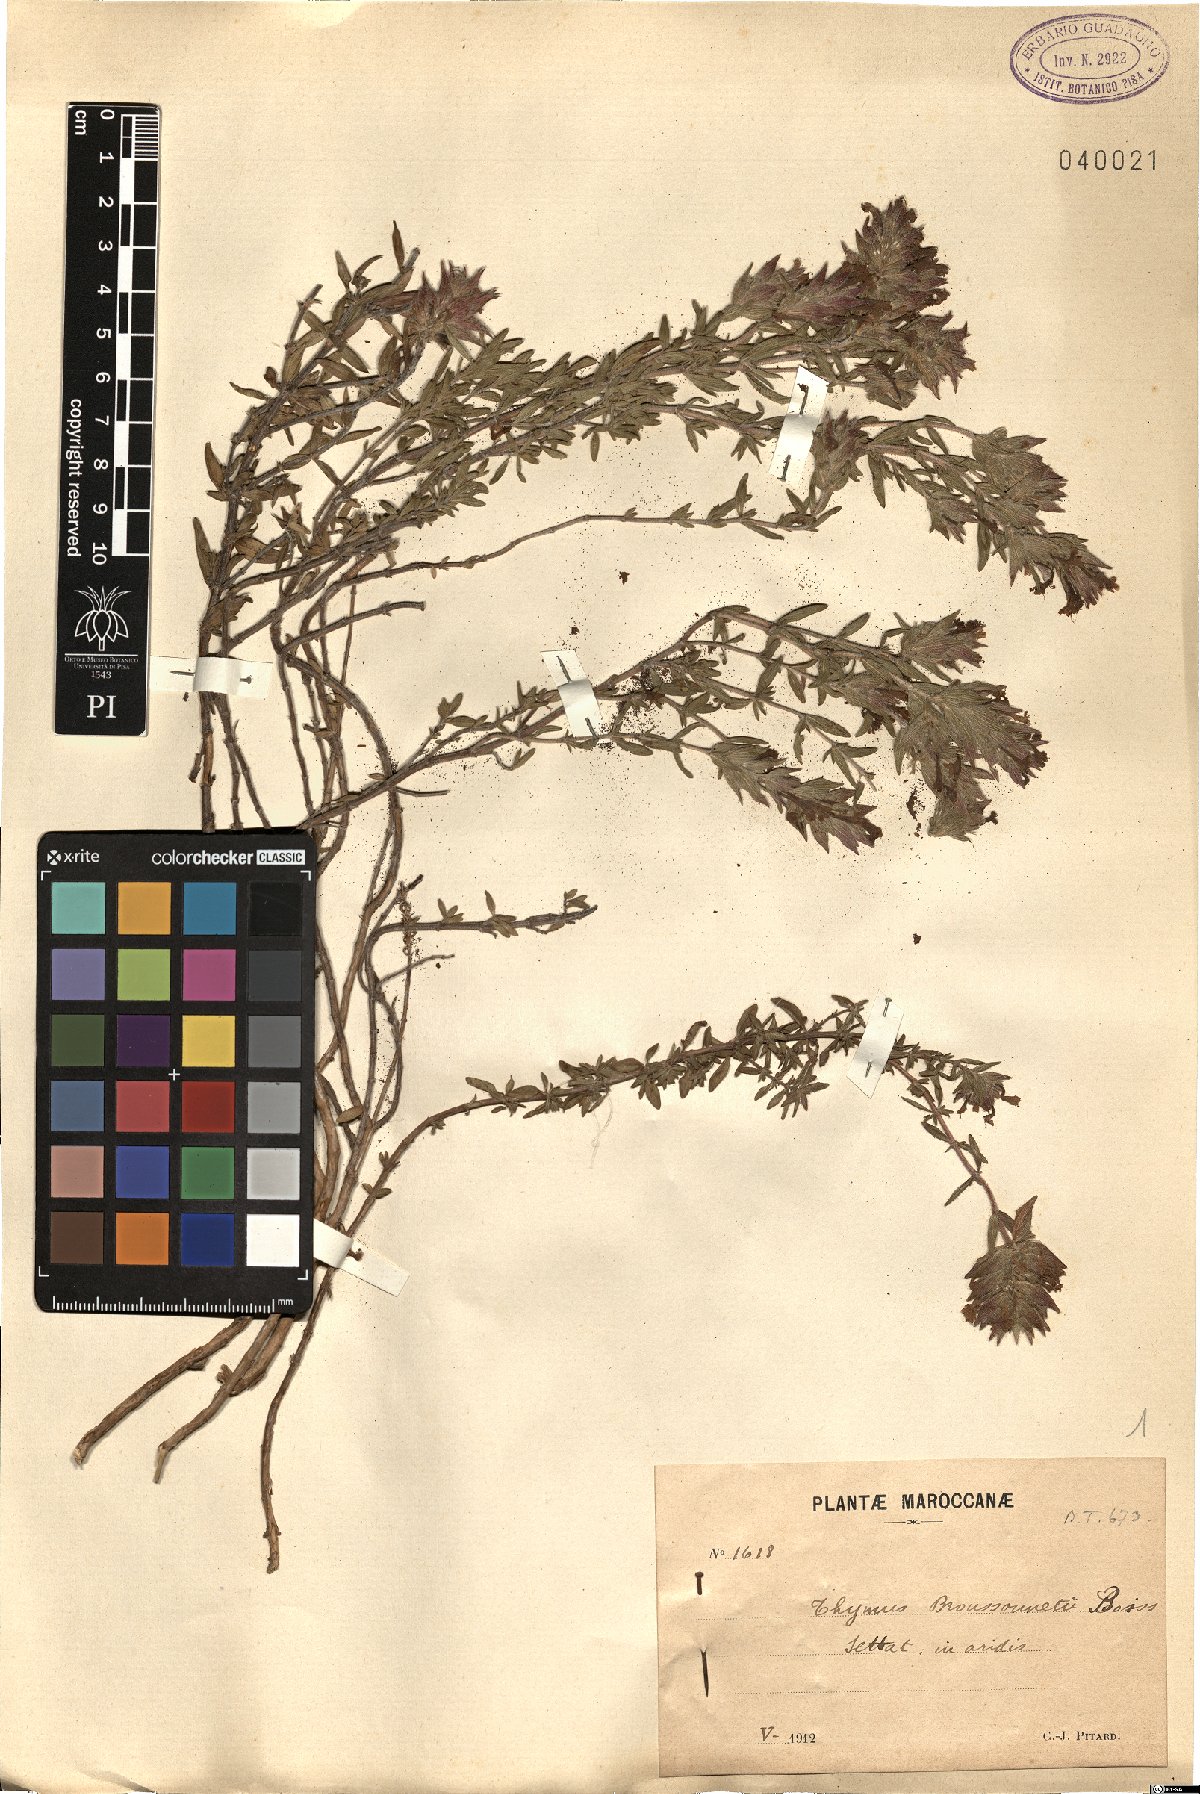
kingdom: Plantae
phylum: Tracheophyta
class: Magnoliopsida
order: Lamiales
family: Lamiaceae
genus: Thymus
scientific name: Thymus broussonetii
